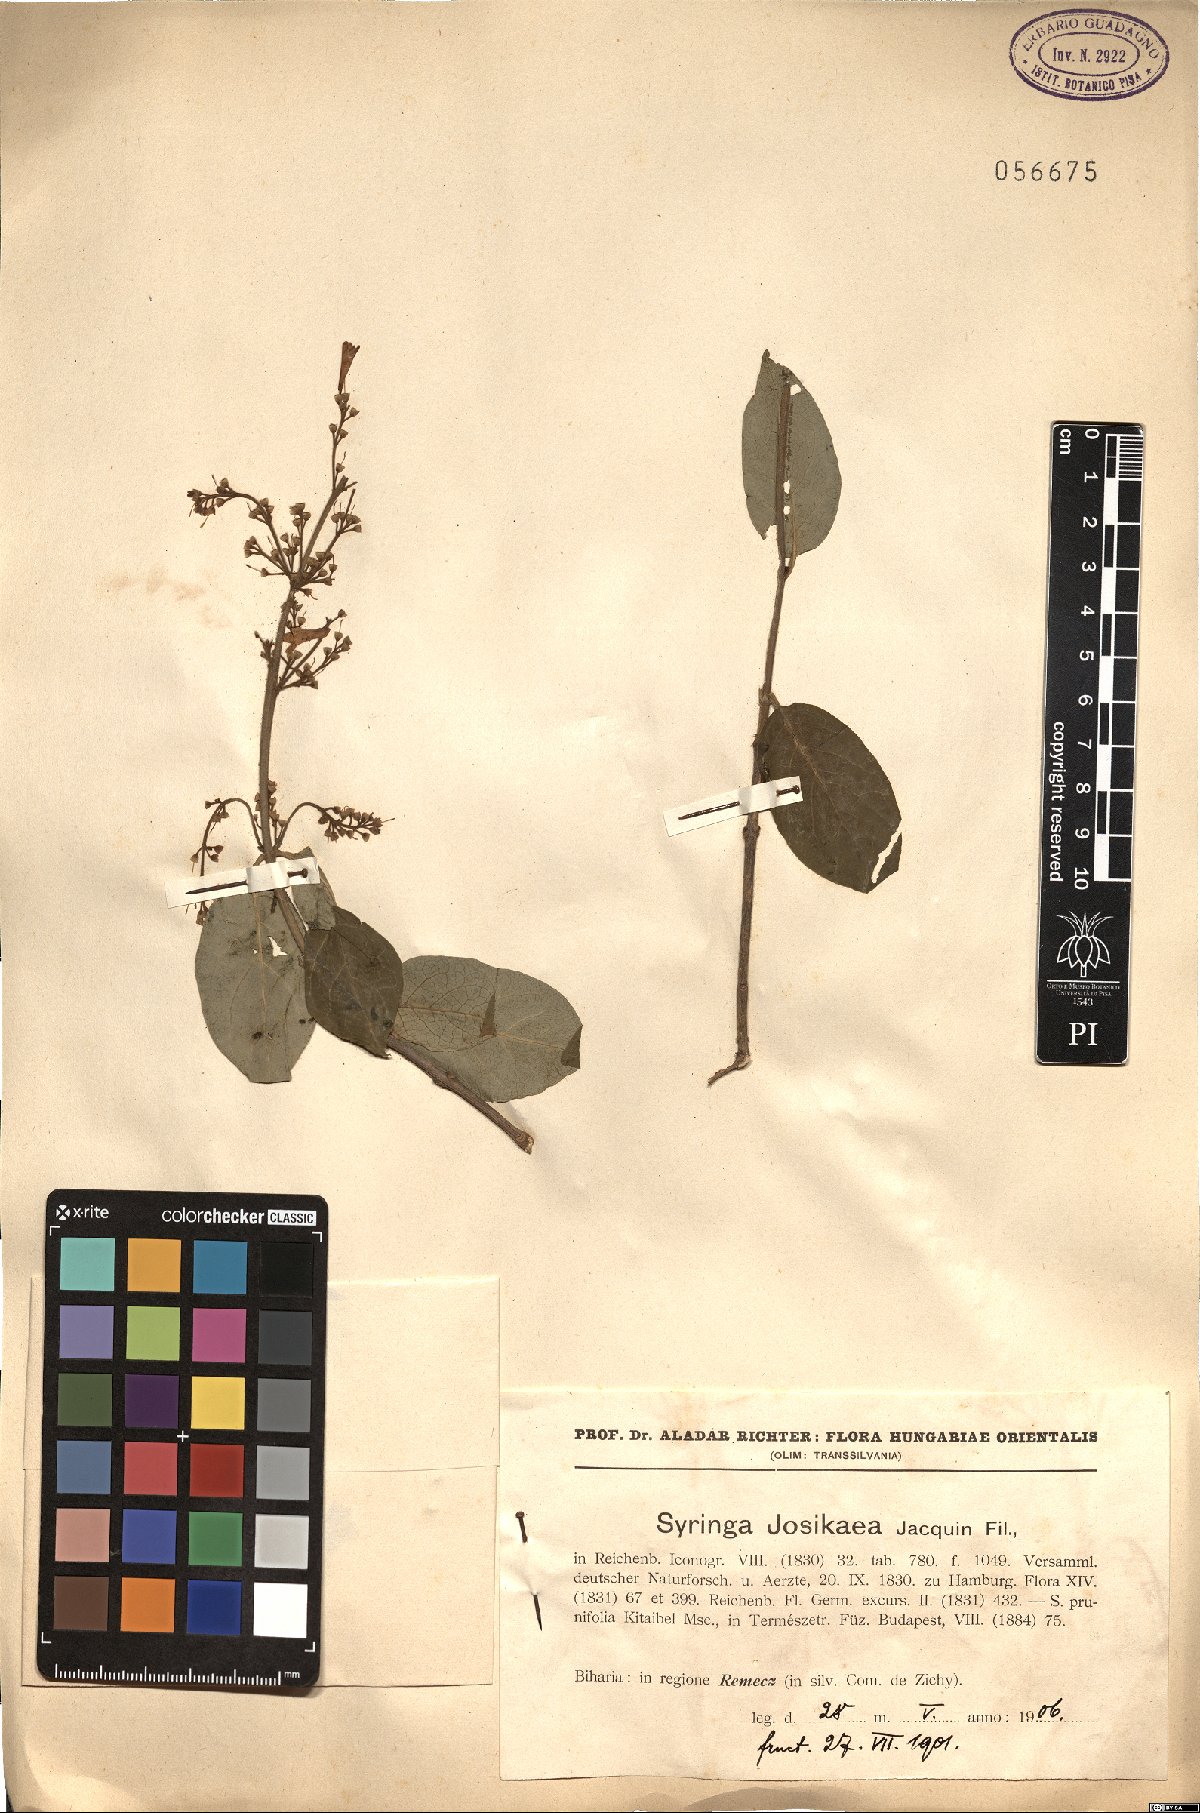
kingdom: Plantae
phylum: Tracheophyta
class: Magnoliopsida
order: Lamiales
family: Oleaceae
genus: Syringa
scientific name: Syringa josikaea
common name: Hungarian lilac
